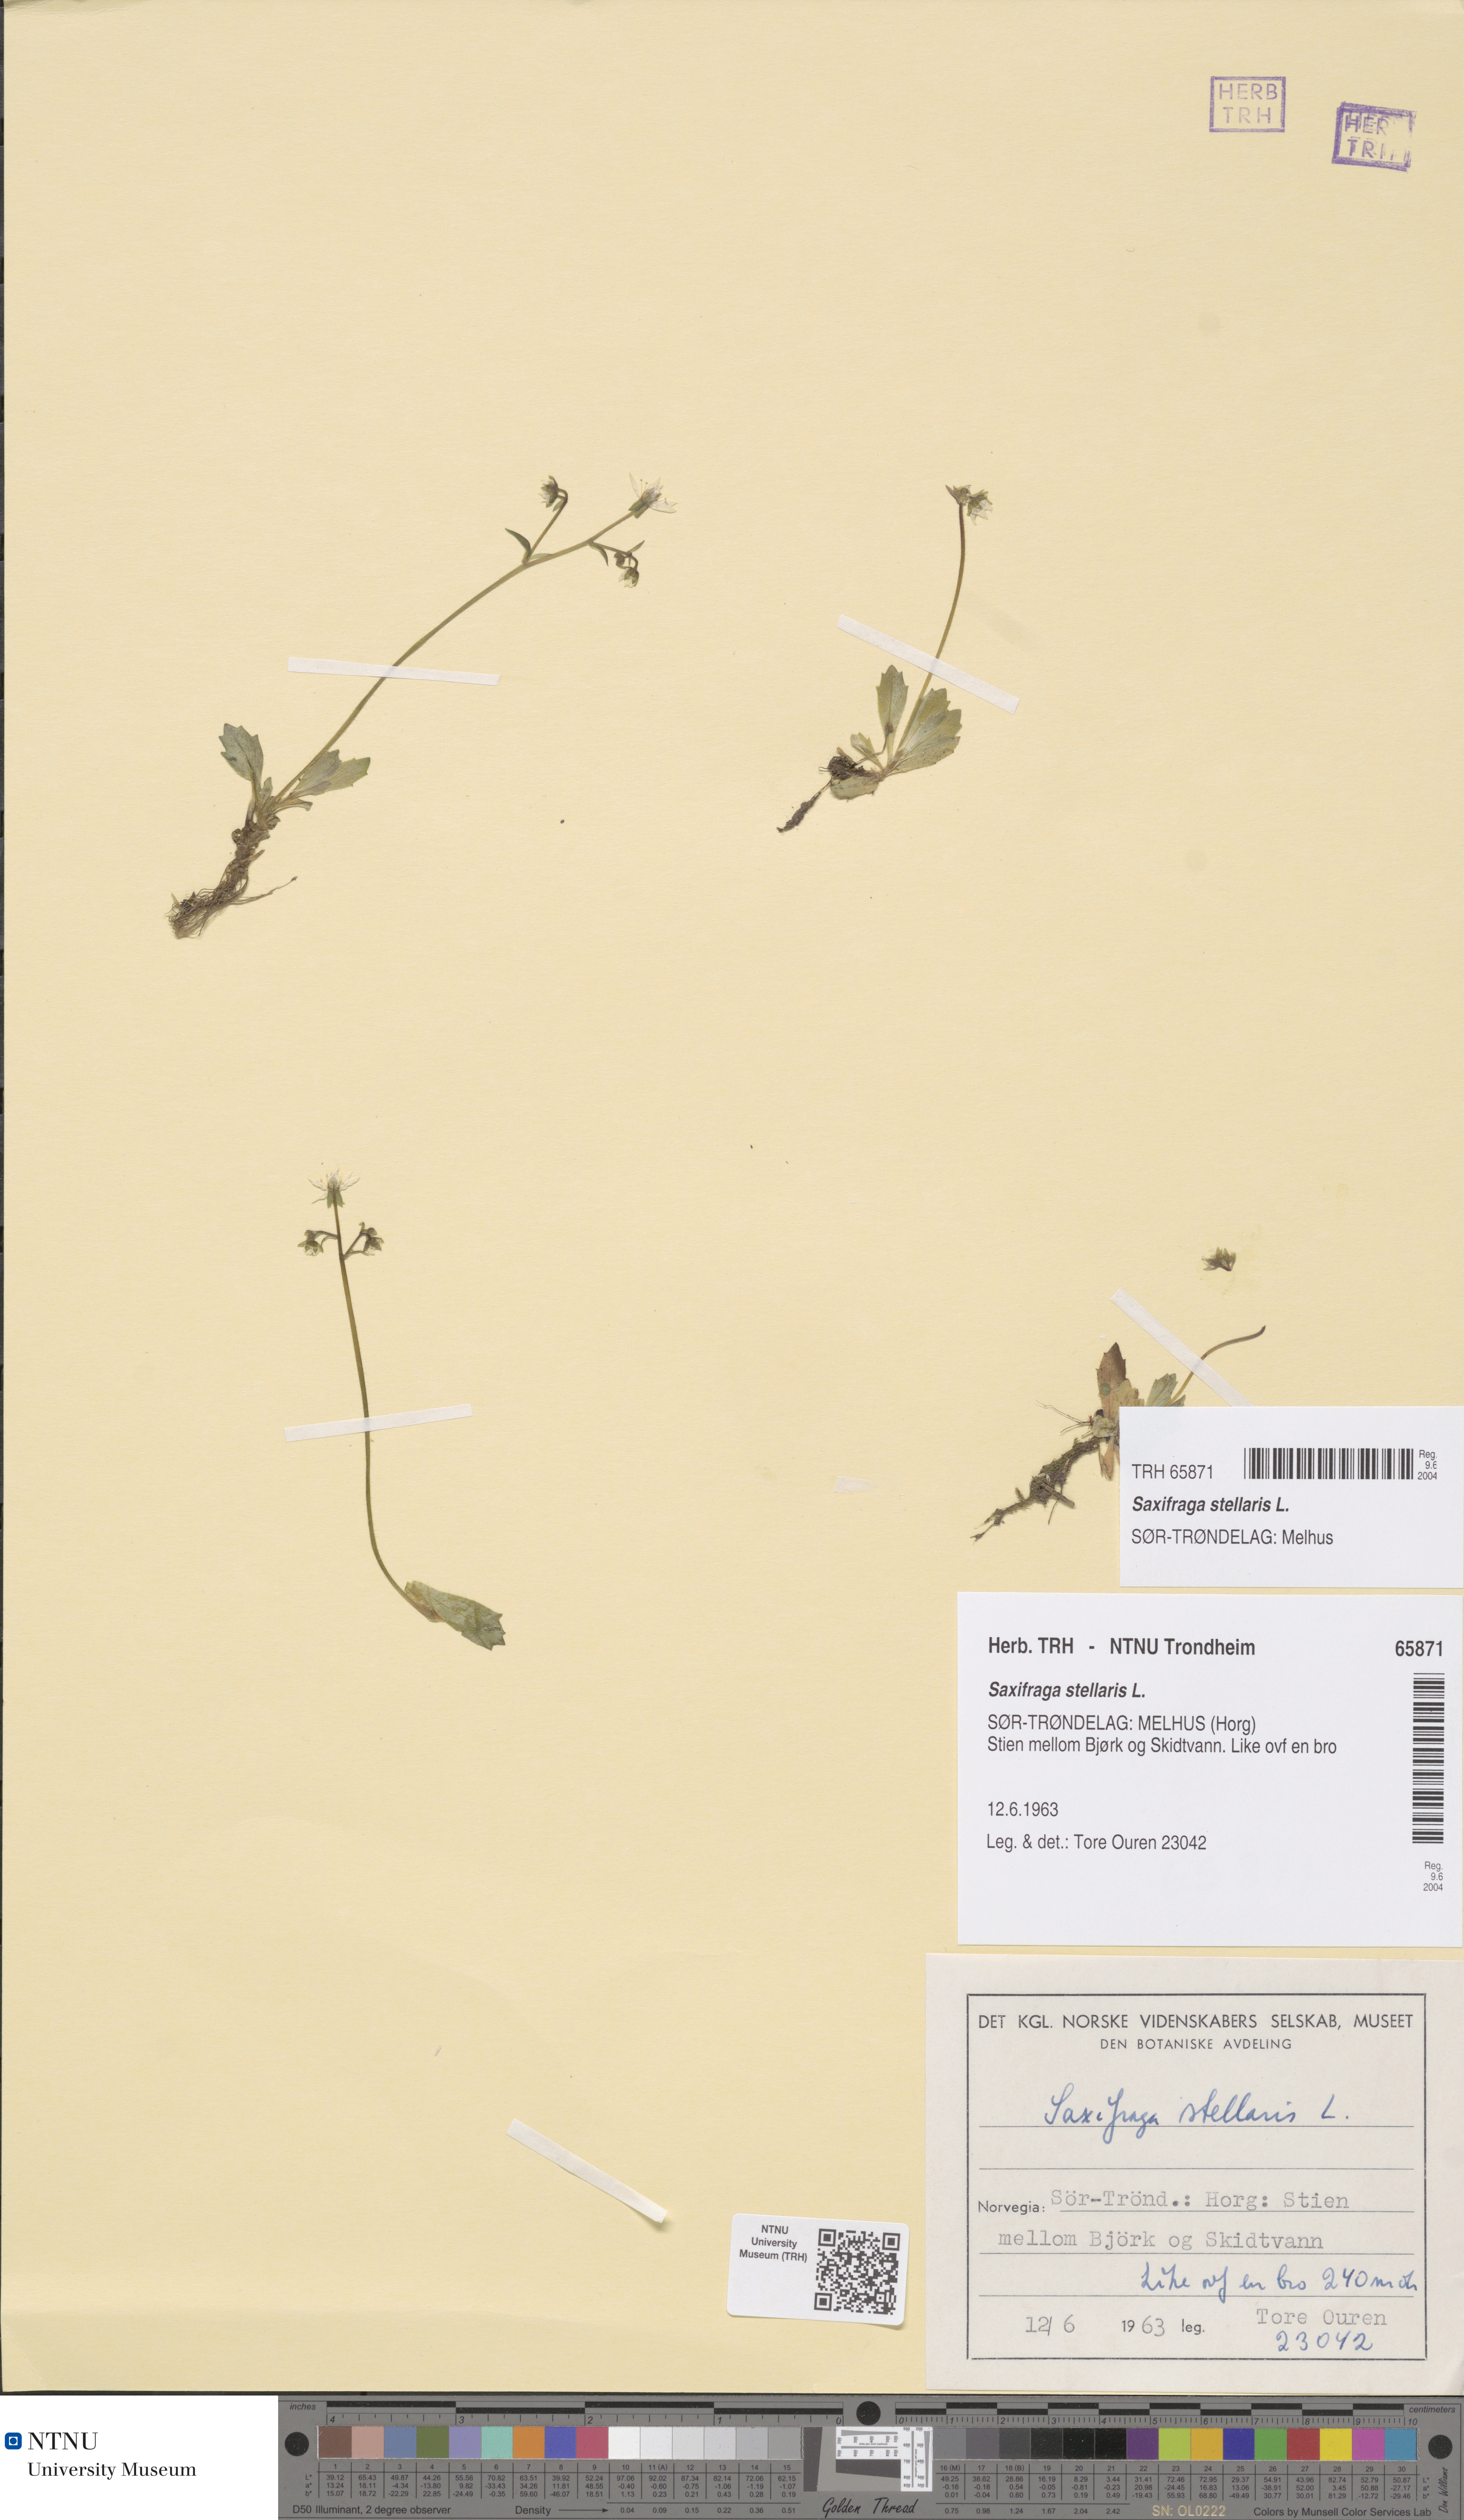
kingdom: Plantae
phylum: Tracheophyta
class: Magnoliopsida
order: Saxifragales
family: Saxifragaceae
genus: Micranthes
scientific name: Micranthes stellaris
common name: Starry saxifrage
